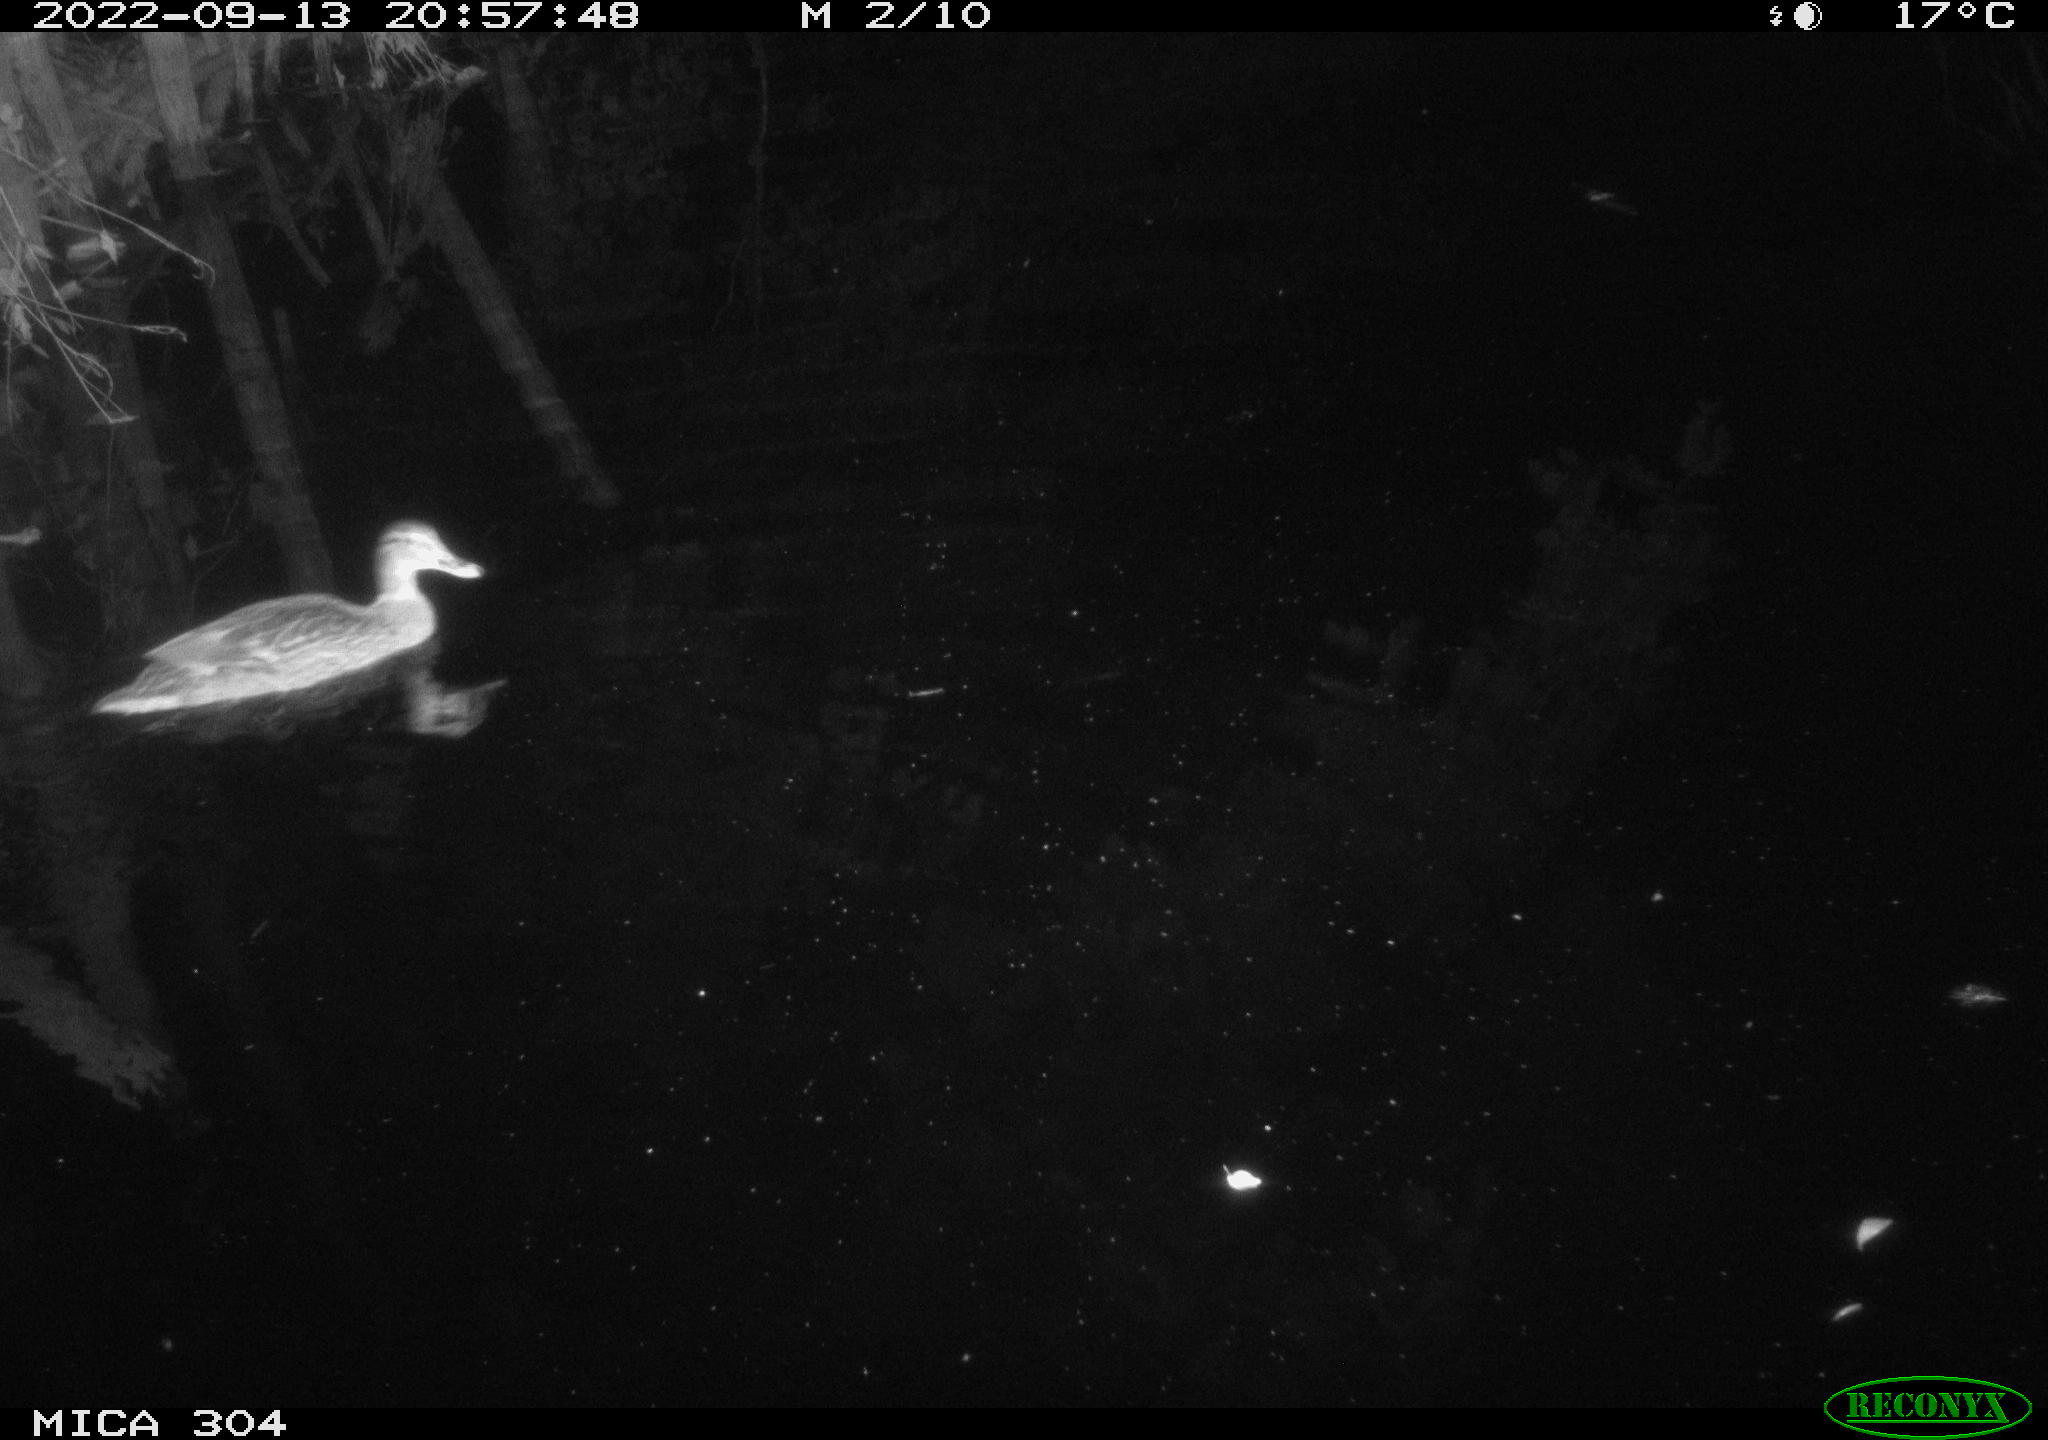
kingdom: Animalia
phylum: Chordata
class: Aves
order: Anseriformes
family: Anatidae
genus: Anas
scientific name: Anas
